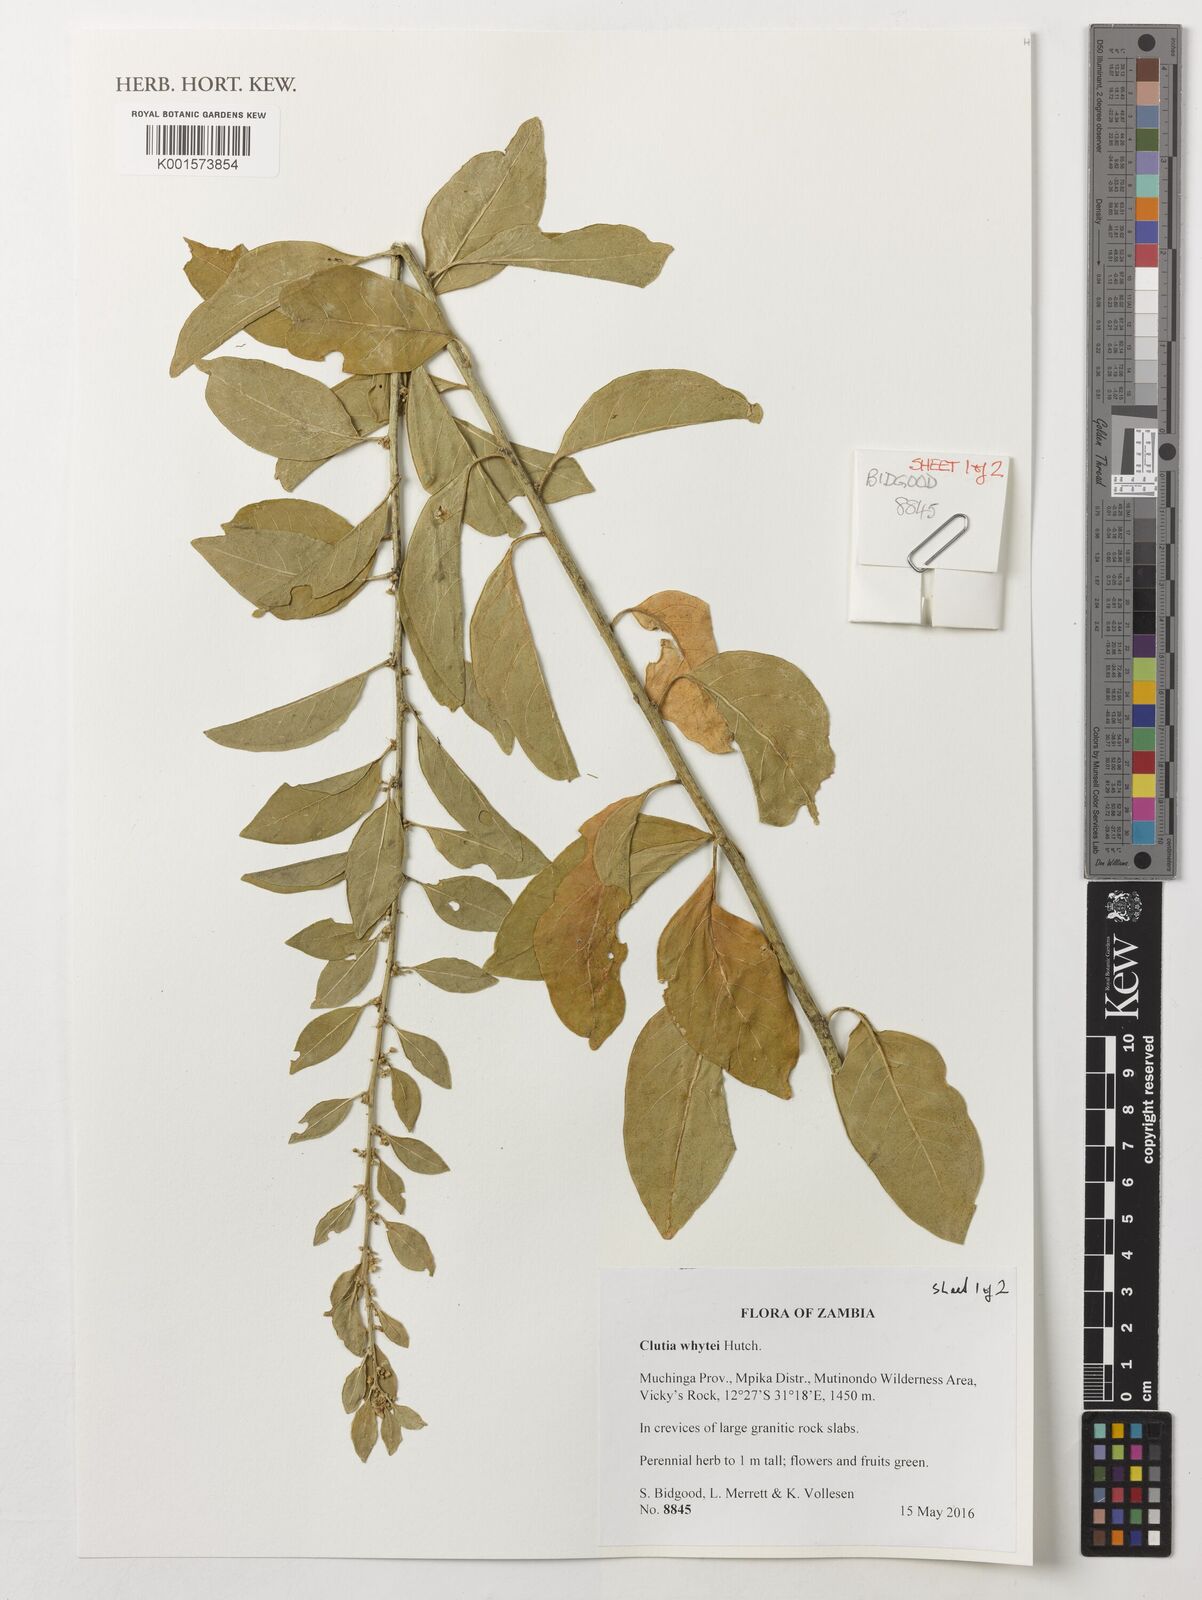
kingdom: Plantae
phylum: Tracheophyta
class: Magnoliopsida
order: Malpighiales
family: Peraceae
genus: Clutia
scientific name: Clutia whytei
